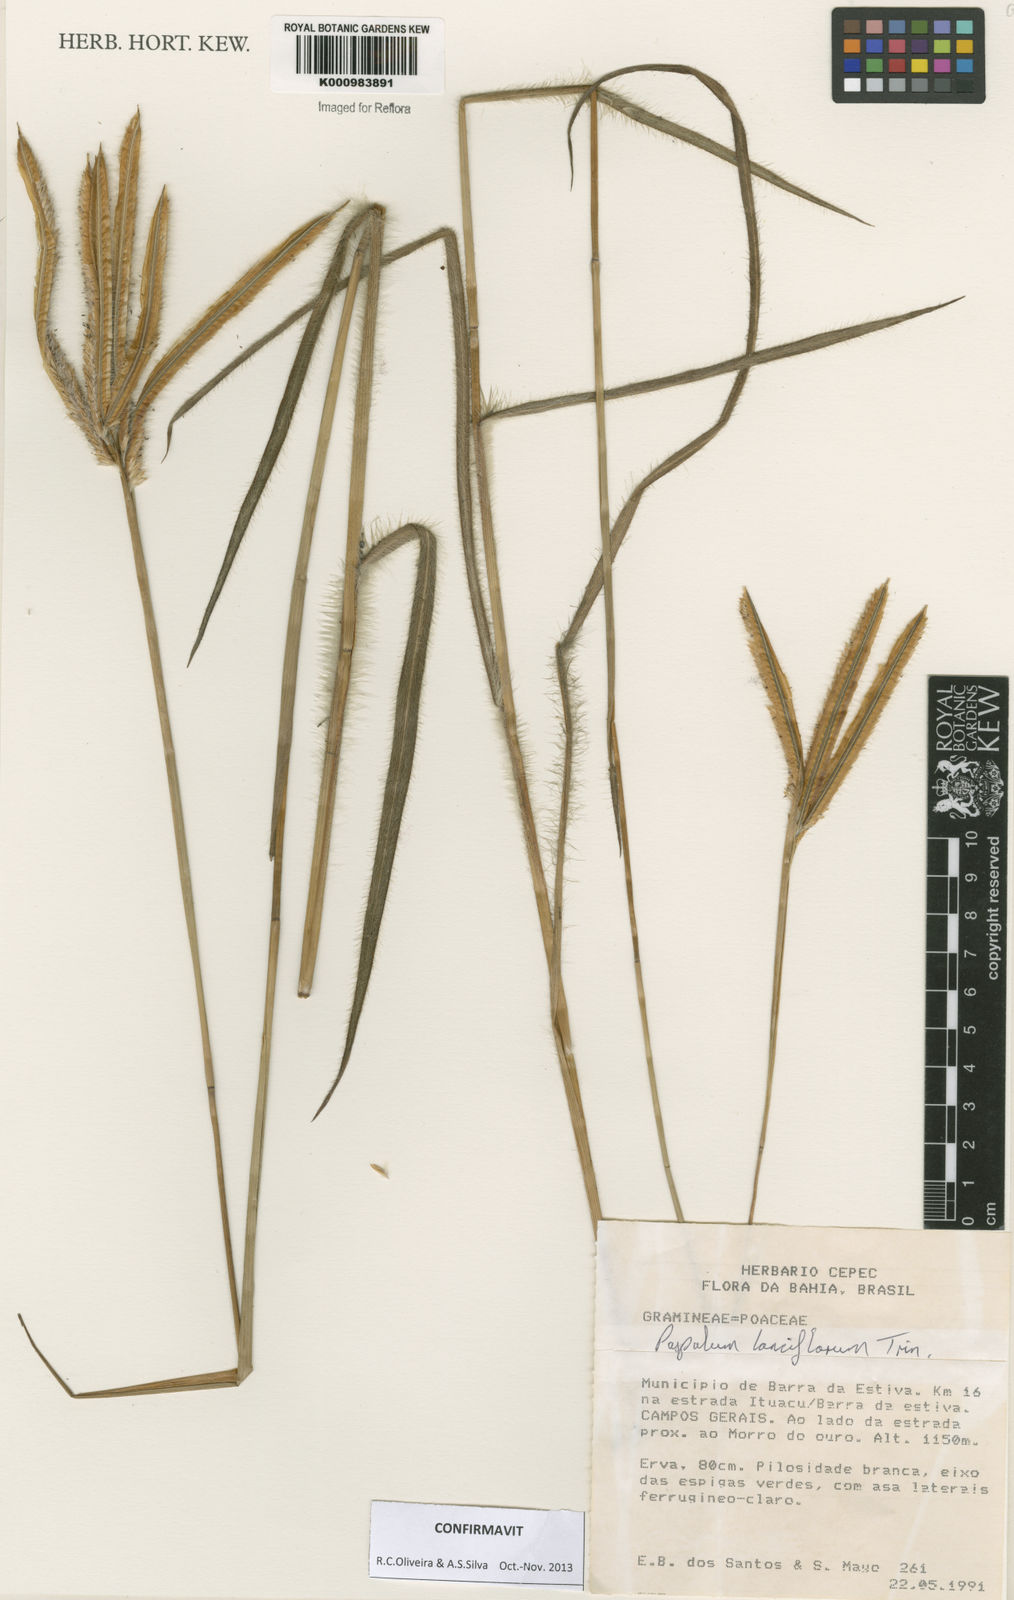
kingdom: Plantae
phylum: Tracheophyta
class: Liliopsida
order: Poales
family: Poaceae
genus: Paspalum
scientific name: Paspalum lanciflorum
